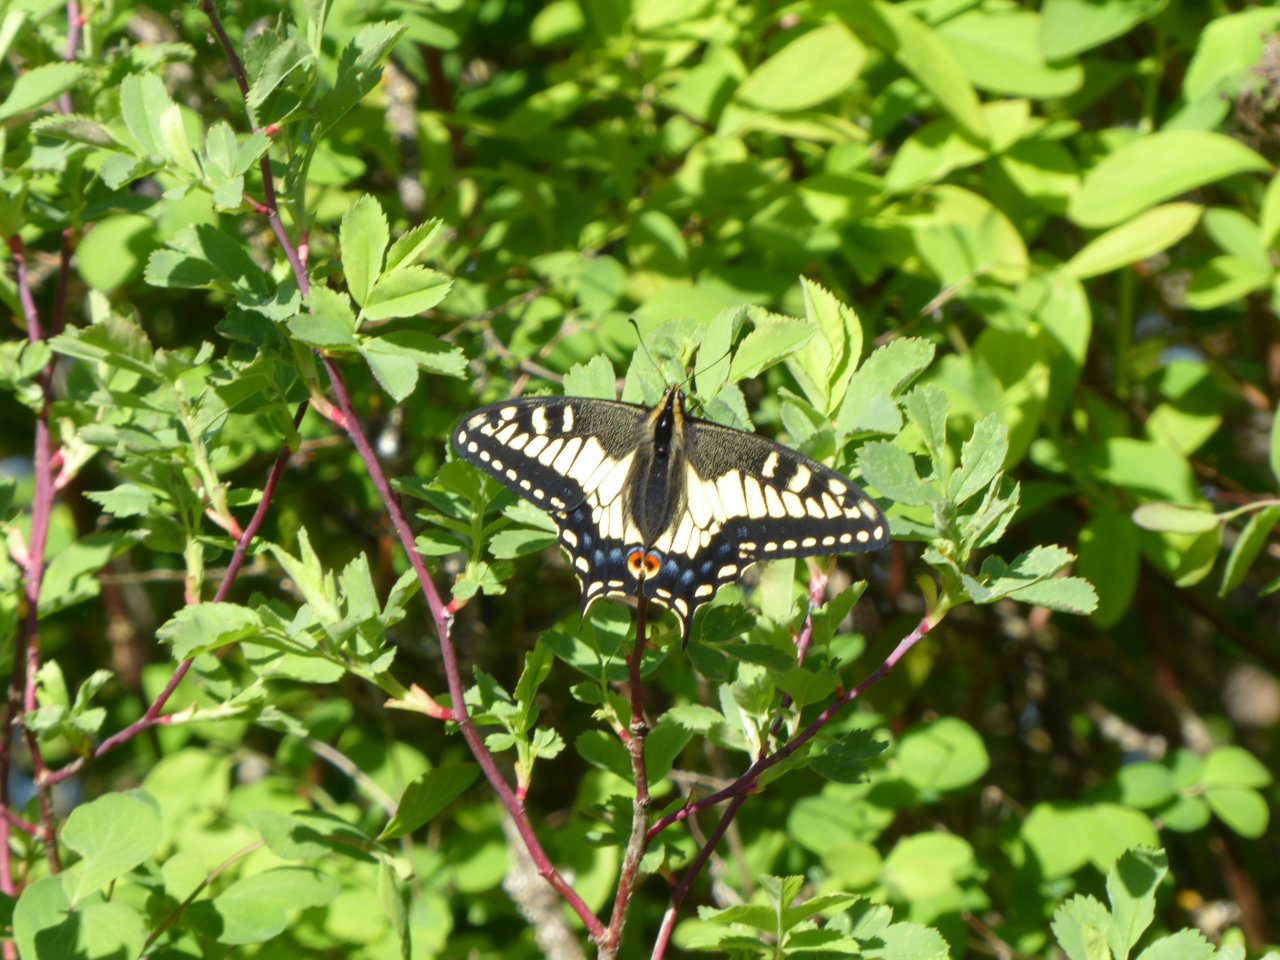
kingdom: Animalia
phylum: Arthropoda
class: Insecta
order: Lepidoptera
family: Papilionidae
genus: Papilio
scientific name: Papilio zelicaon
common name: Anise Swallowtail
